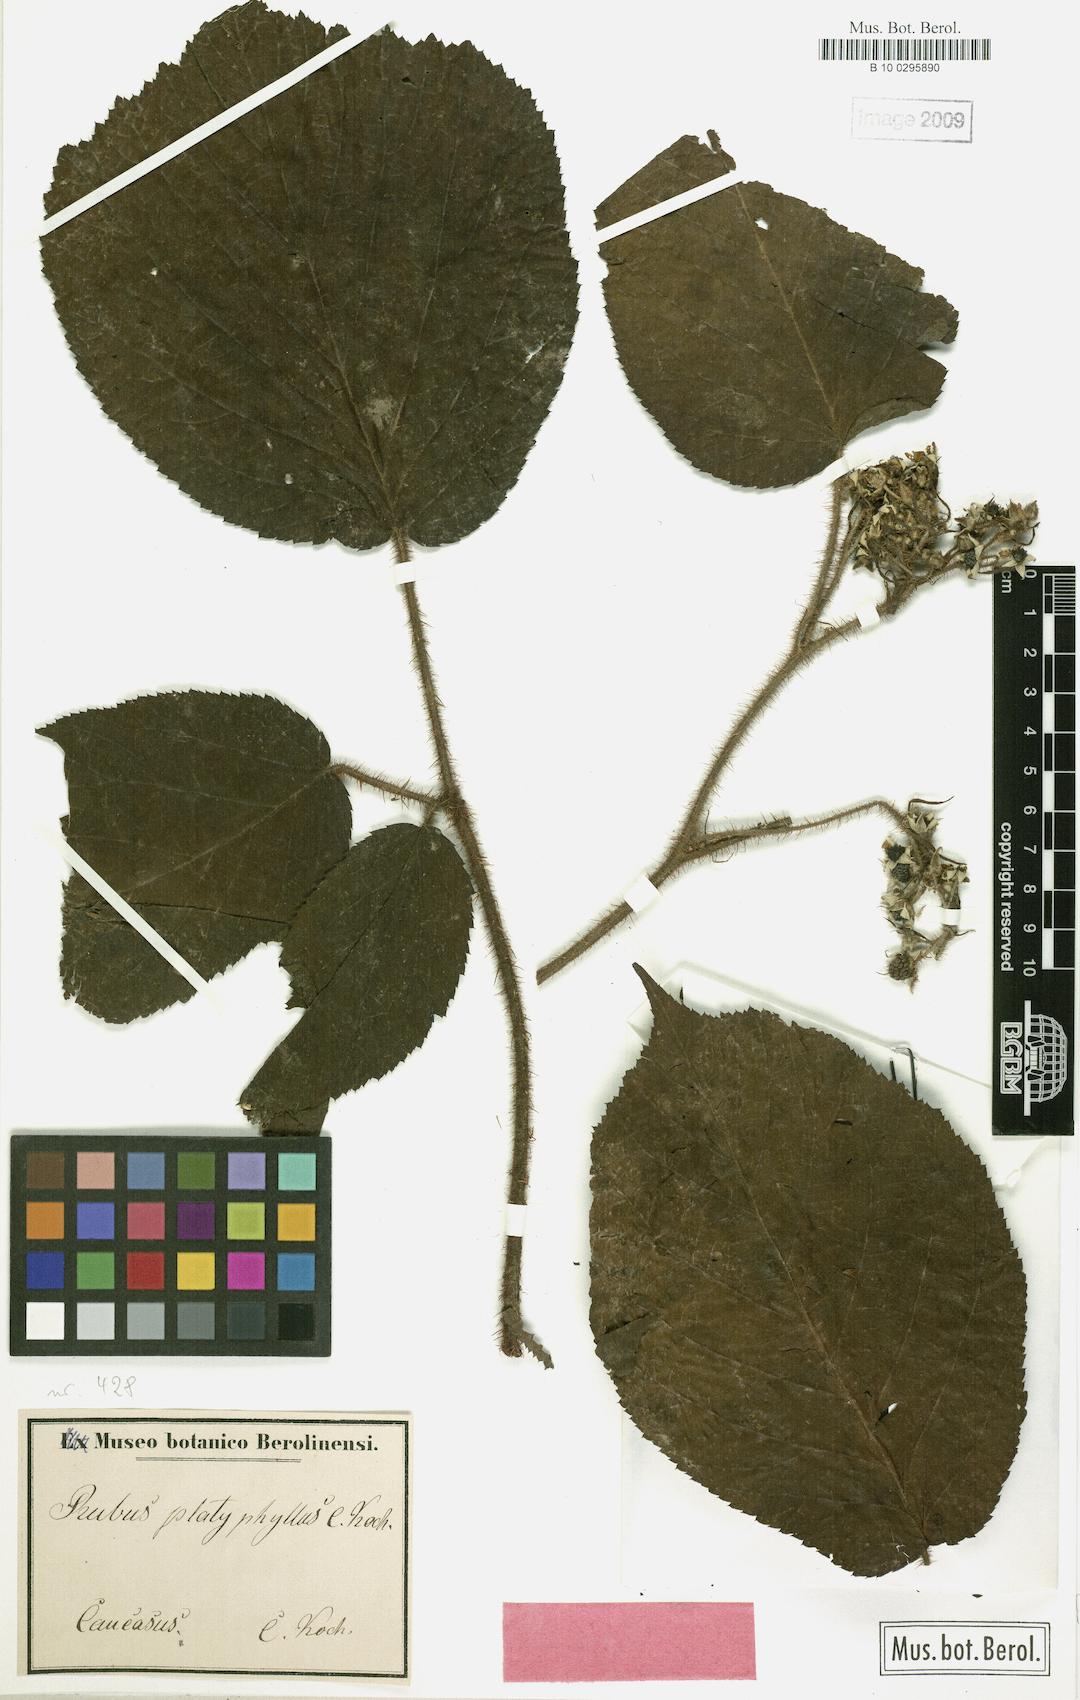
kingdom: Plantae
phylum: Tracheophyta
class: Magnoliopsida
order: Rosales
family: Rosaceae
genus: Rubus
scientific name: Rubus platyphyllus
